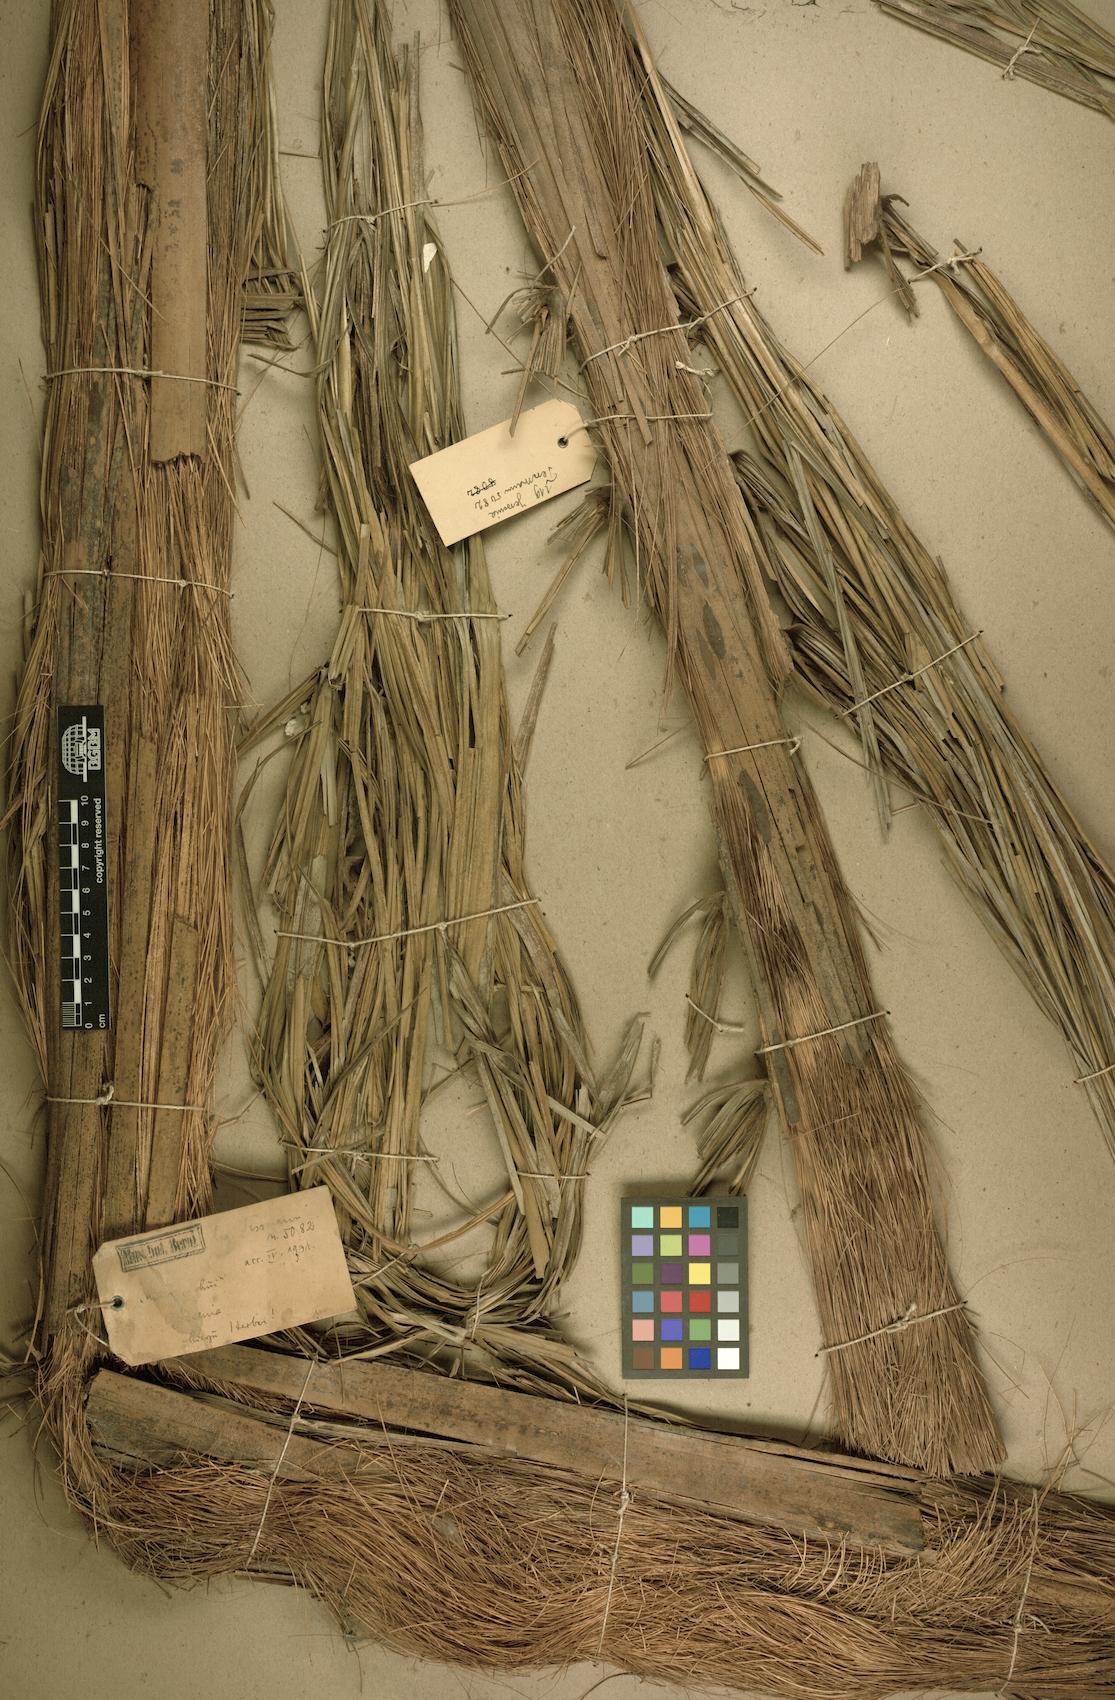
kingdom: Plantae
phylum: Tracheophyta
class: Liliopsida
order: Arecales
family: Arecaceae
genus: Oenocarpus
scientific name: Oenocarpus bataua
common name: Bataua palm
